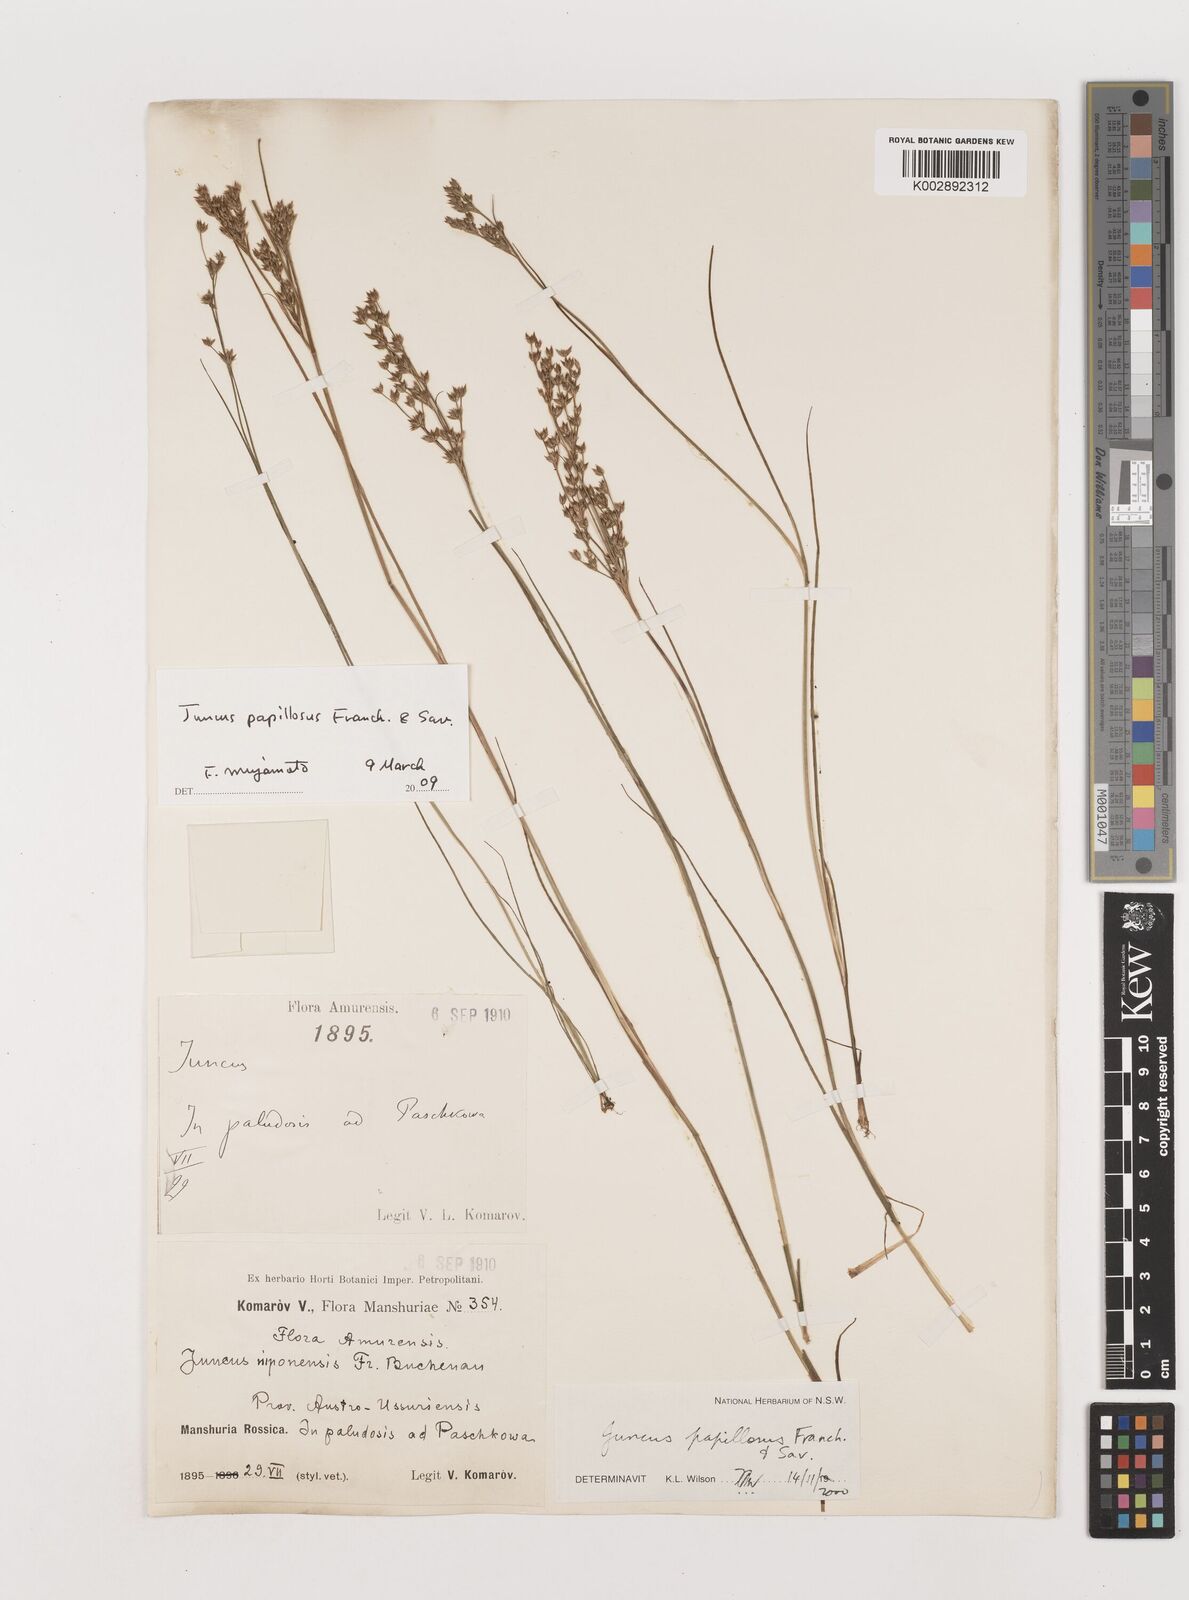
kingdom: Plantae
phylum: Tracheophyta
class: Liliopsida
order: Poales
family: Juncaceae
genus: Juncus
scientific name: Juncus papillosus
